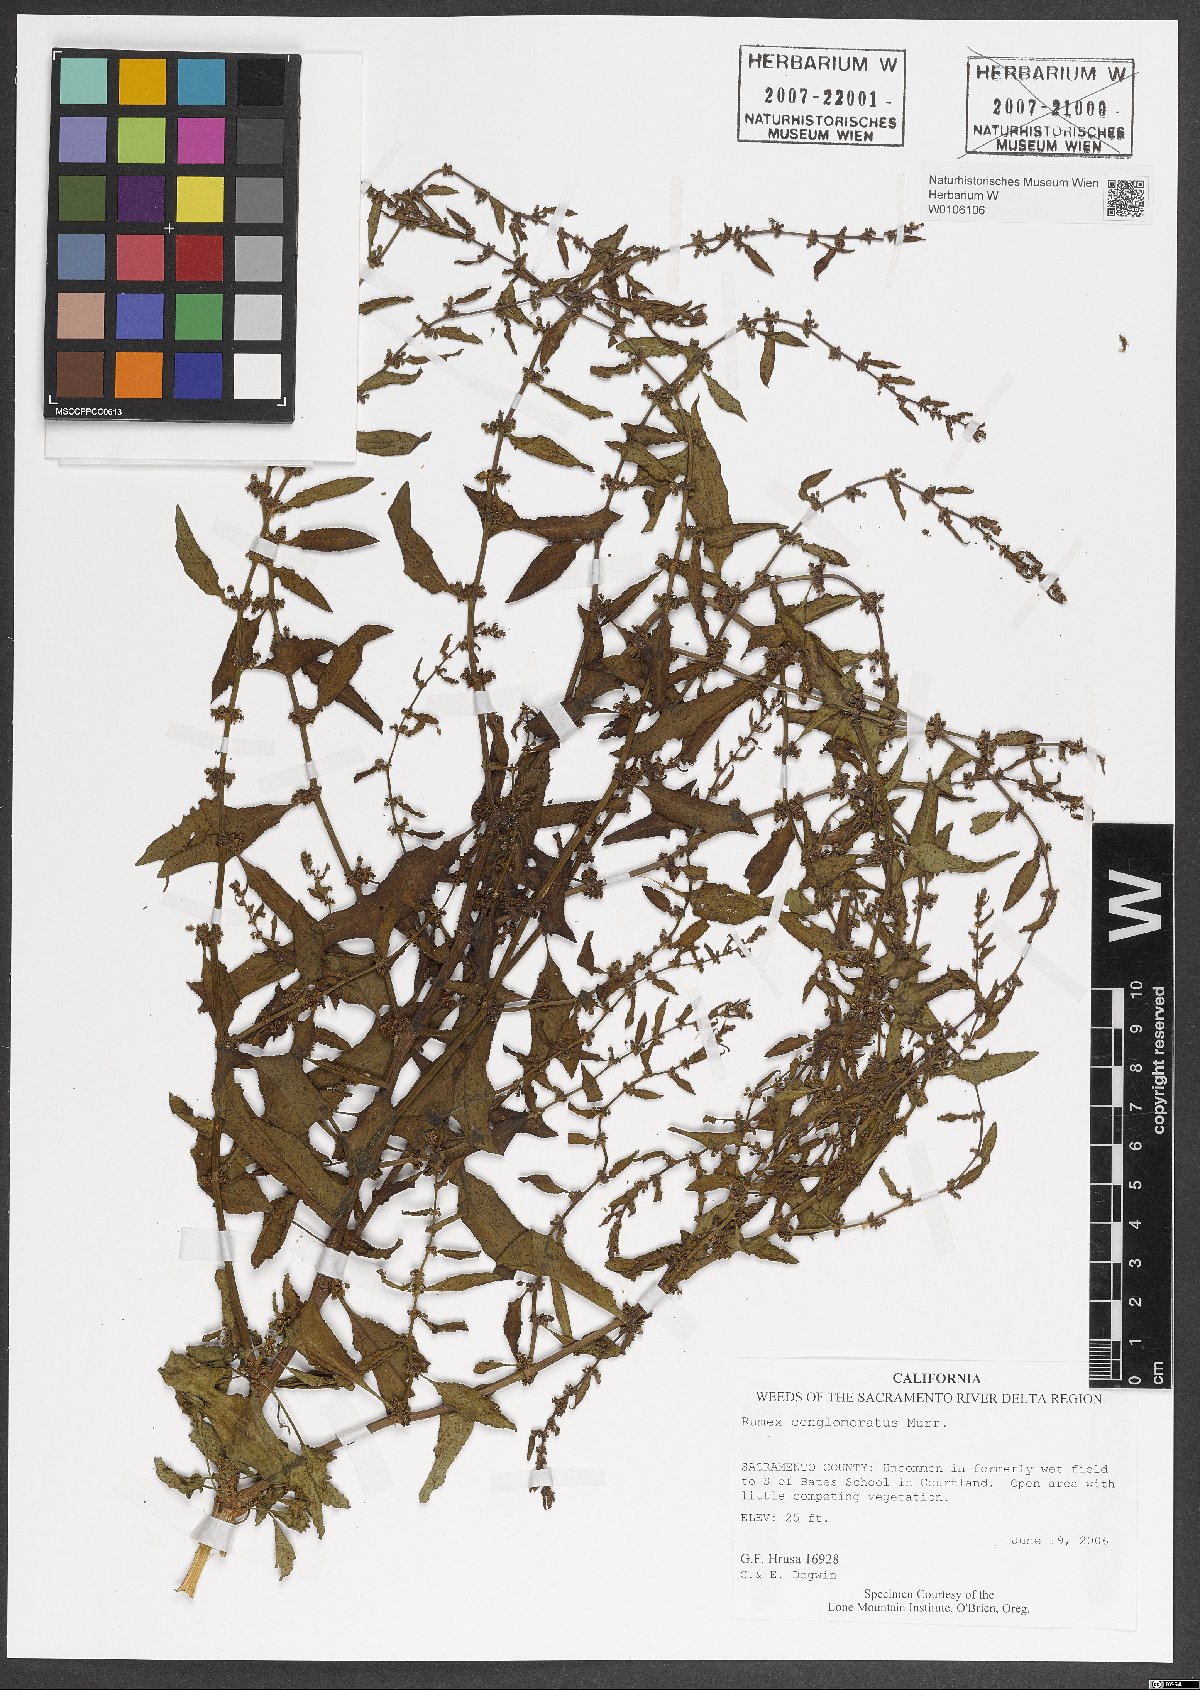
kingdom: Plantae
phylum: Tracheophyta
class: Magnoliopsida
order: Caryophyllales
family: Polygonaceae
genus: Rumex
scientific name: Rumex conglomeratus
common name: Clustered dock
